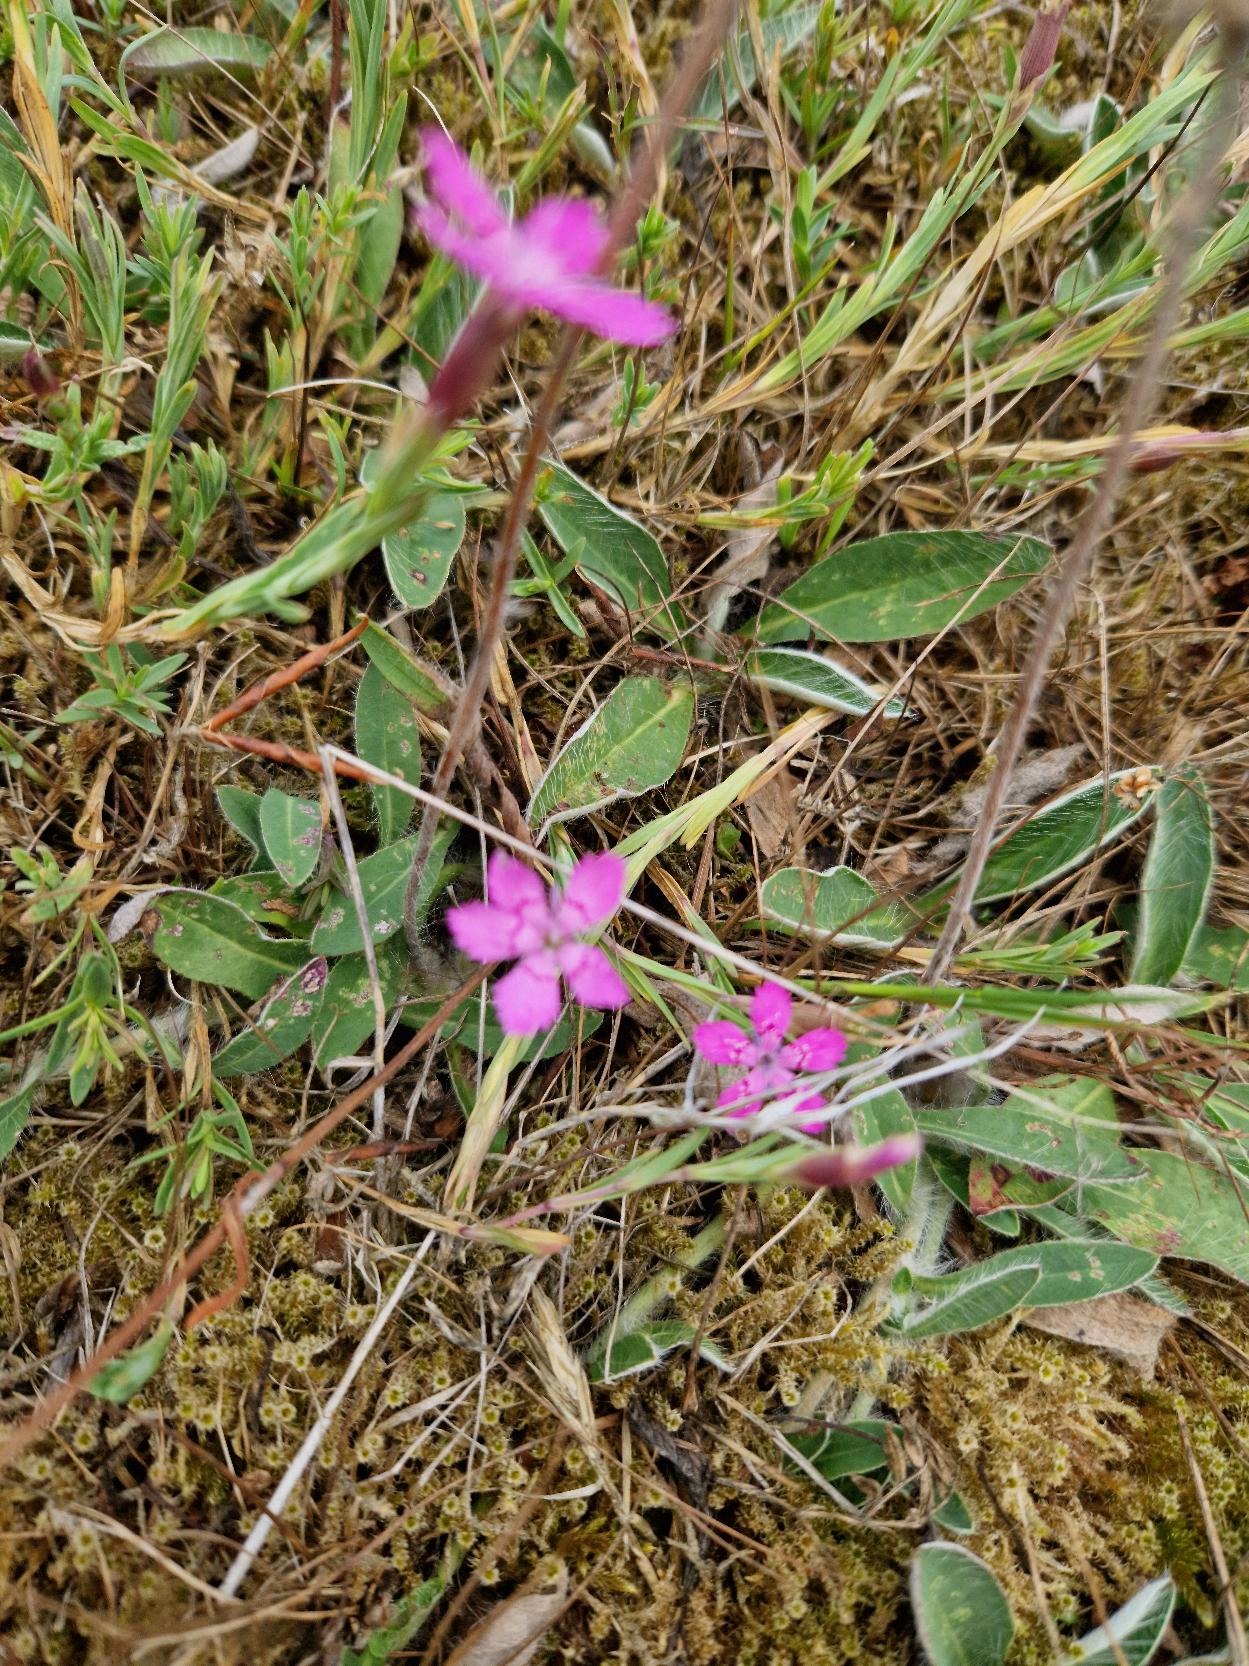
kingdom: Plantae
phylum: Tracheophyta
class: Magnoliopsida
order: Caryophyllales
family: Caryophyllaceae
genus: Dianthus
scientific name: Dianthus deltoides
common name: Bakke-nellike
